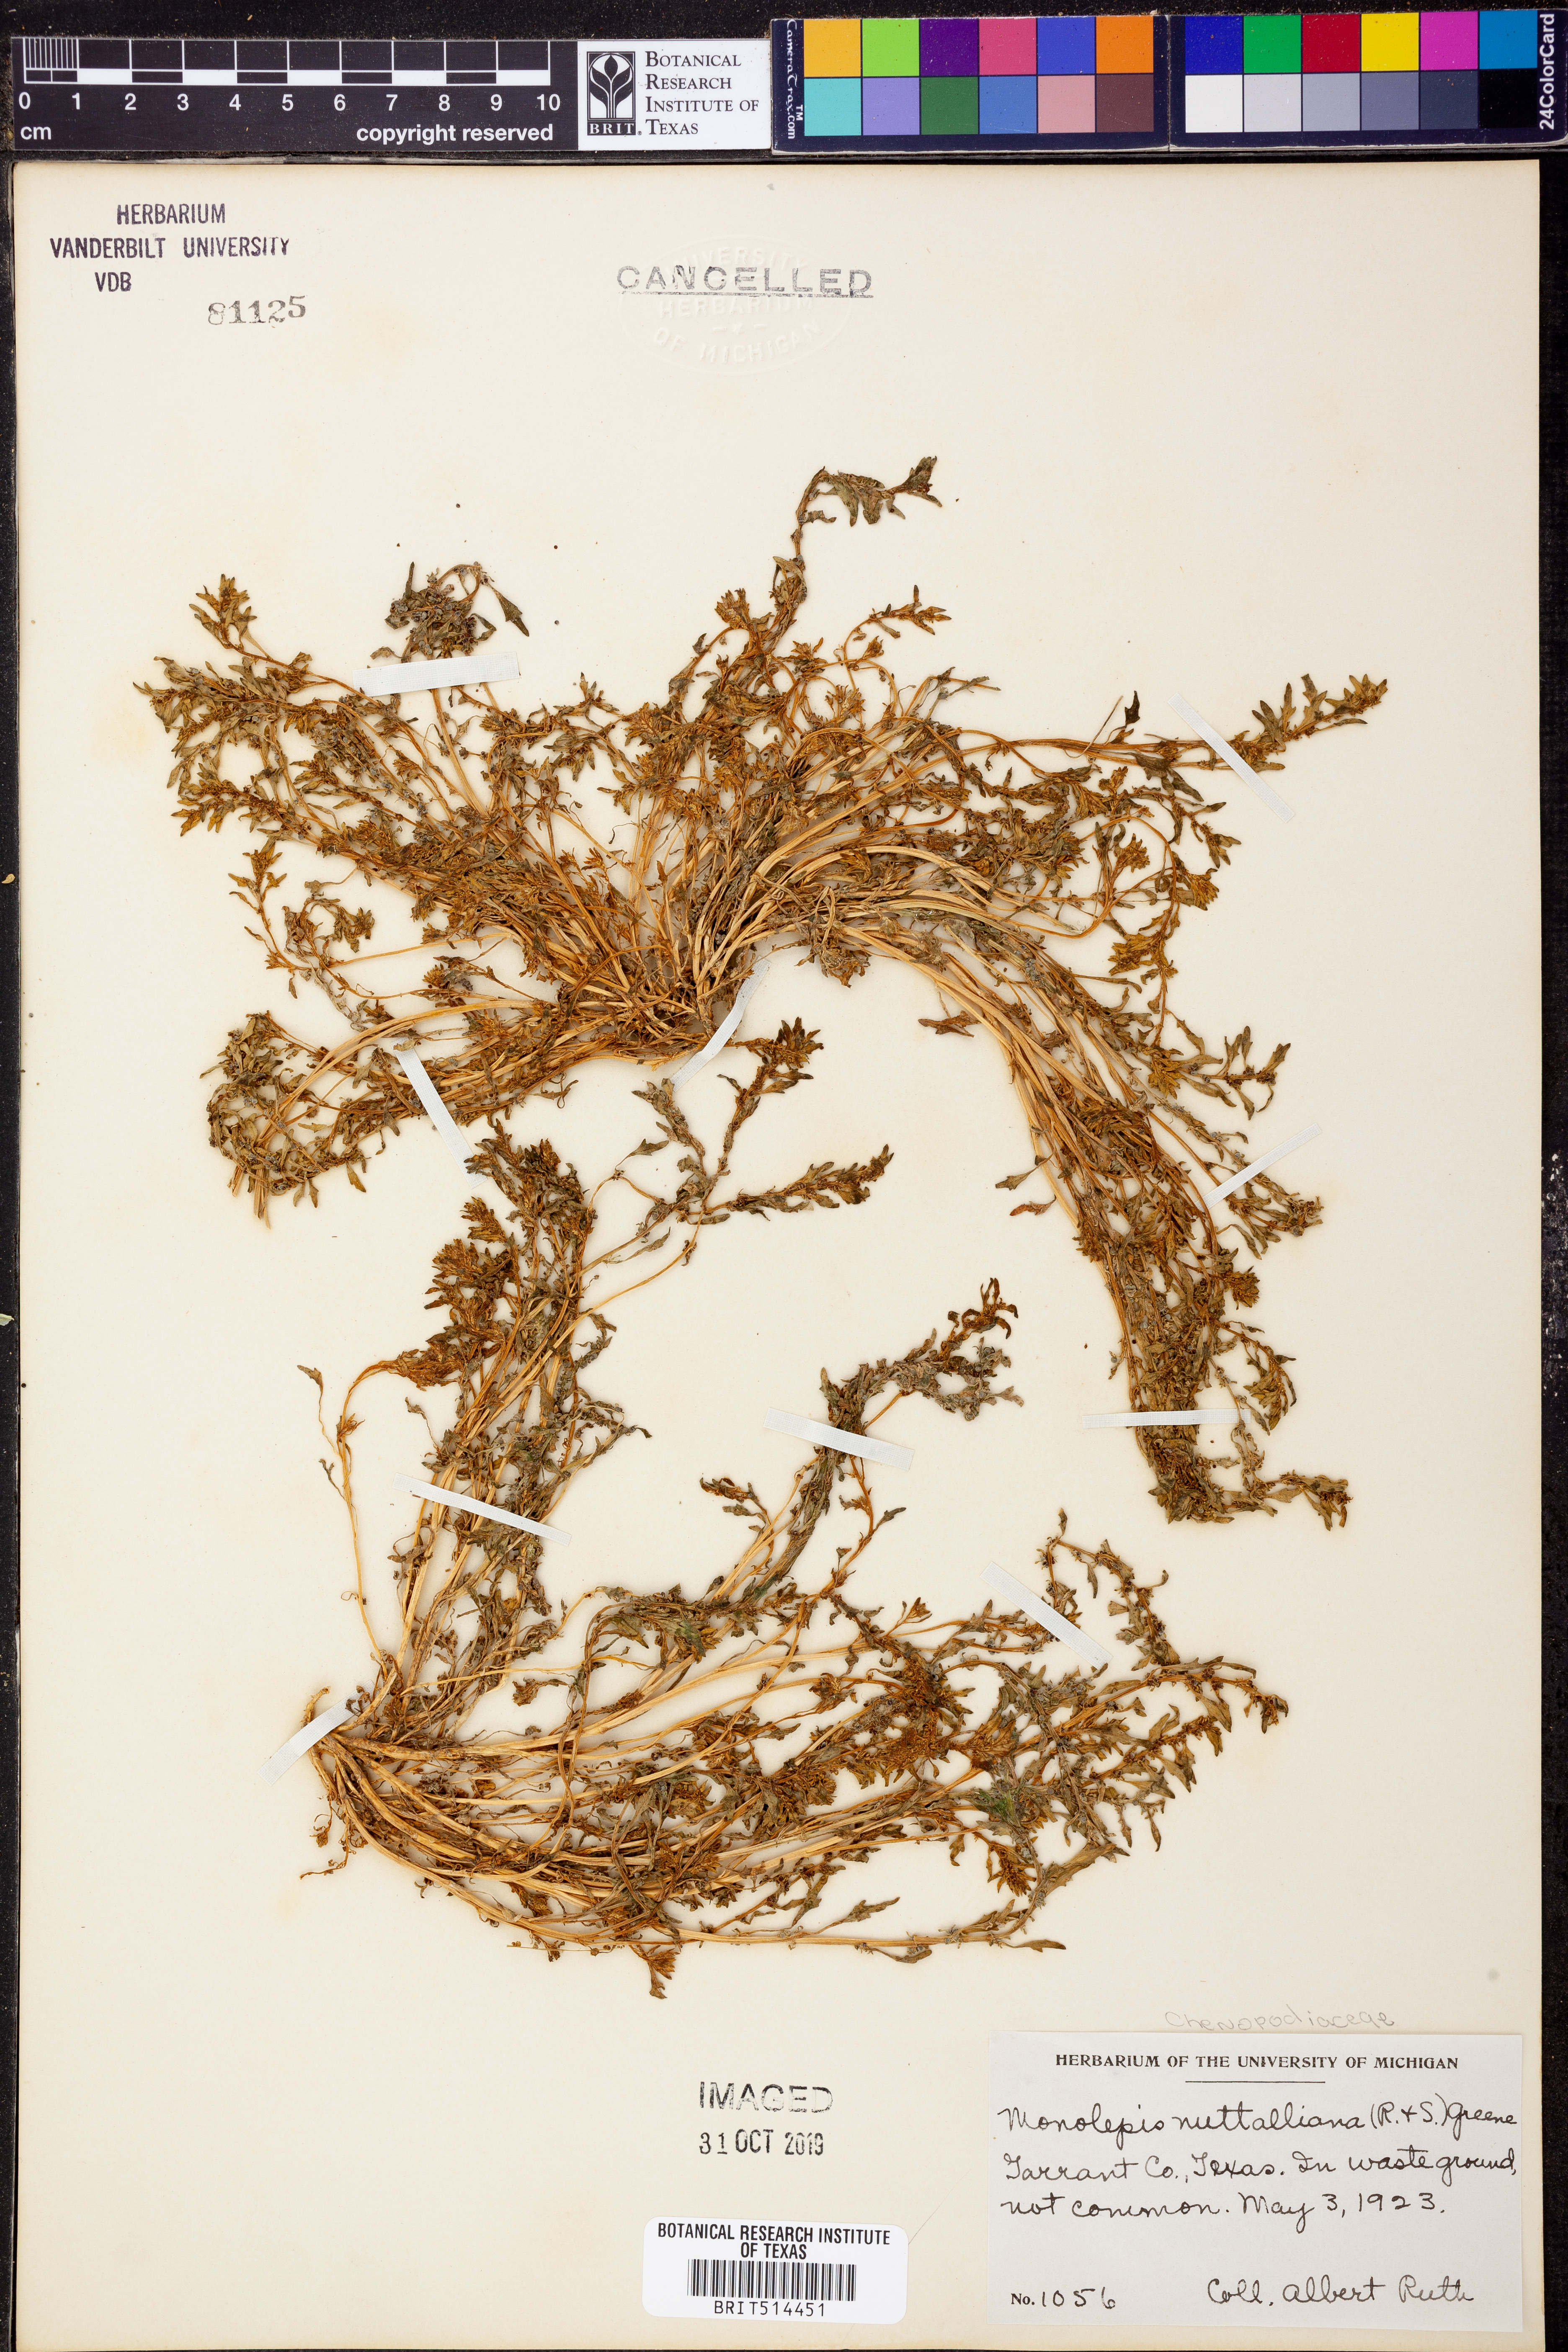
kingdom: Plantae
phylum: Tracheophyta
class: Magnoliopsida
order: Caryophyllales
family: Amaranthaceae
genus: Blitum
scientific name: Blitum nuttallianum
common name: Poverty-weed
